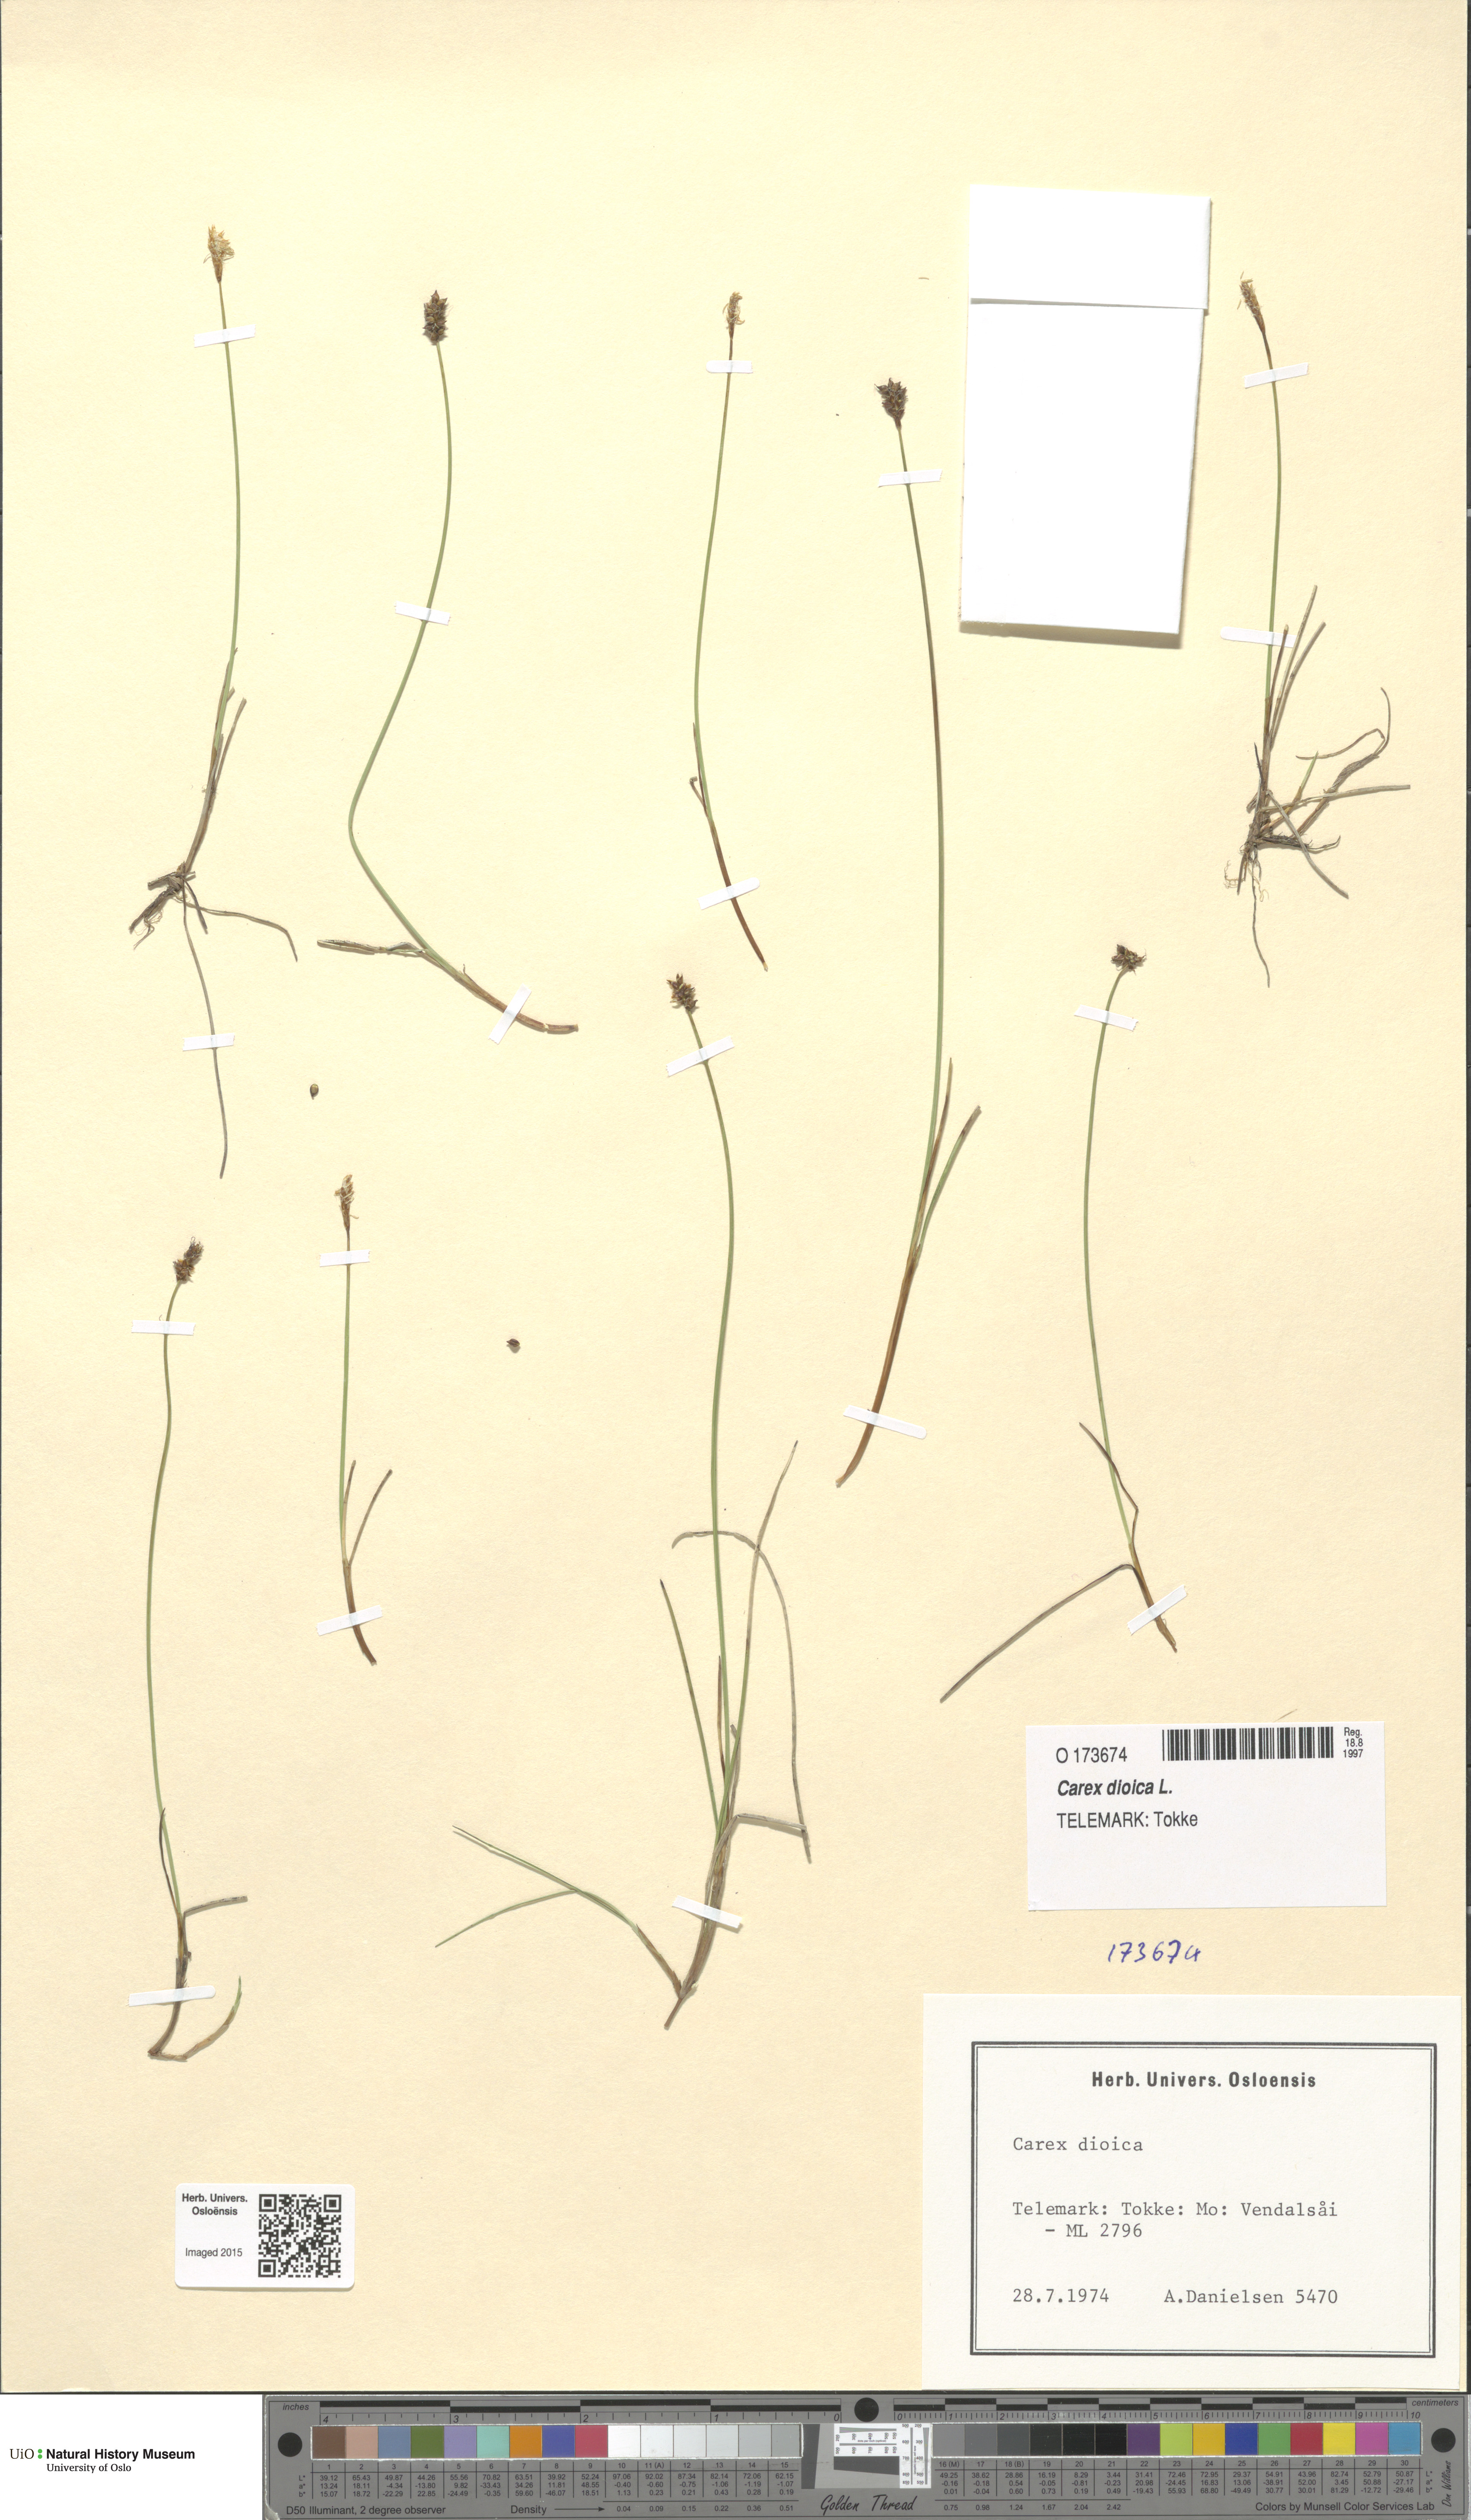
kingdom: Plantae
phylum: Tracheophyta
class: Liliopsida
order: Poales
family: Cyperaceae
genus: Carex
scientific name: Carex dioica
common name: Dioecious sedge
